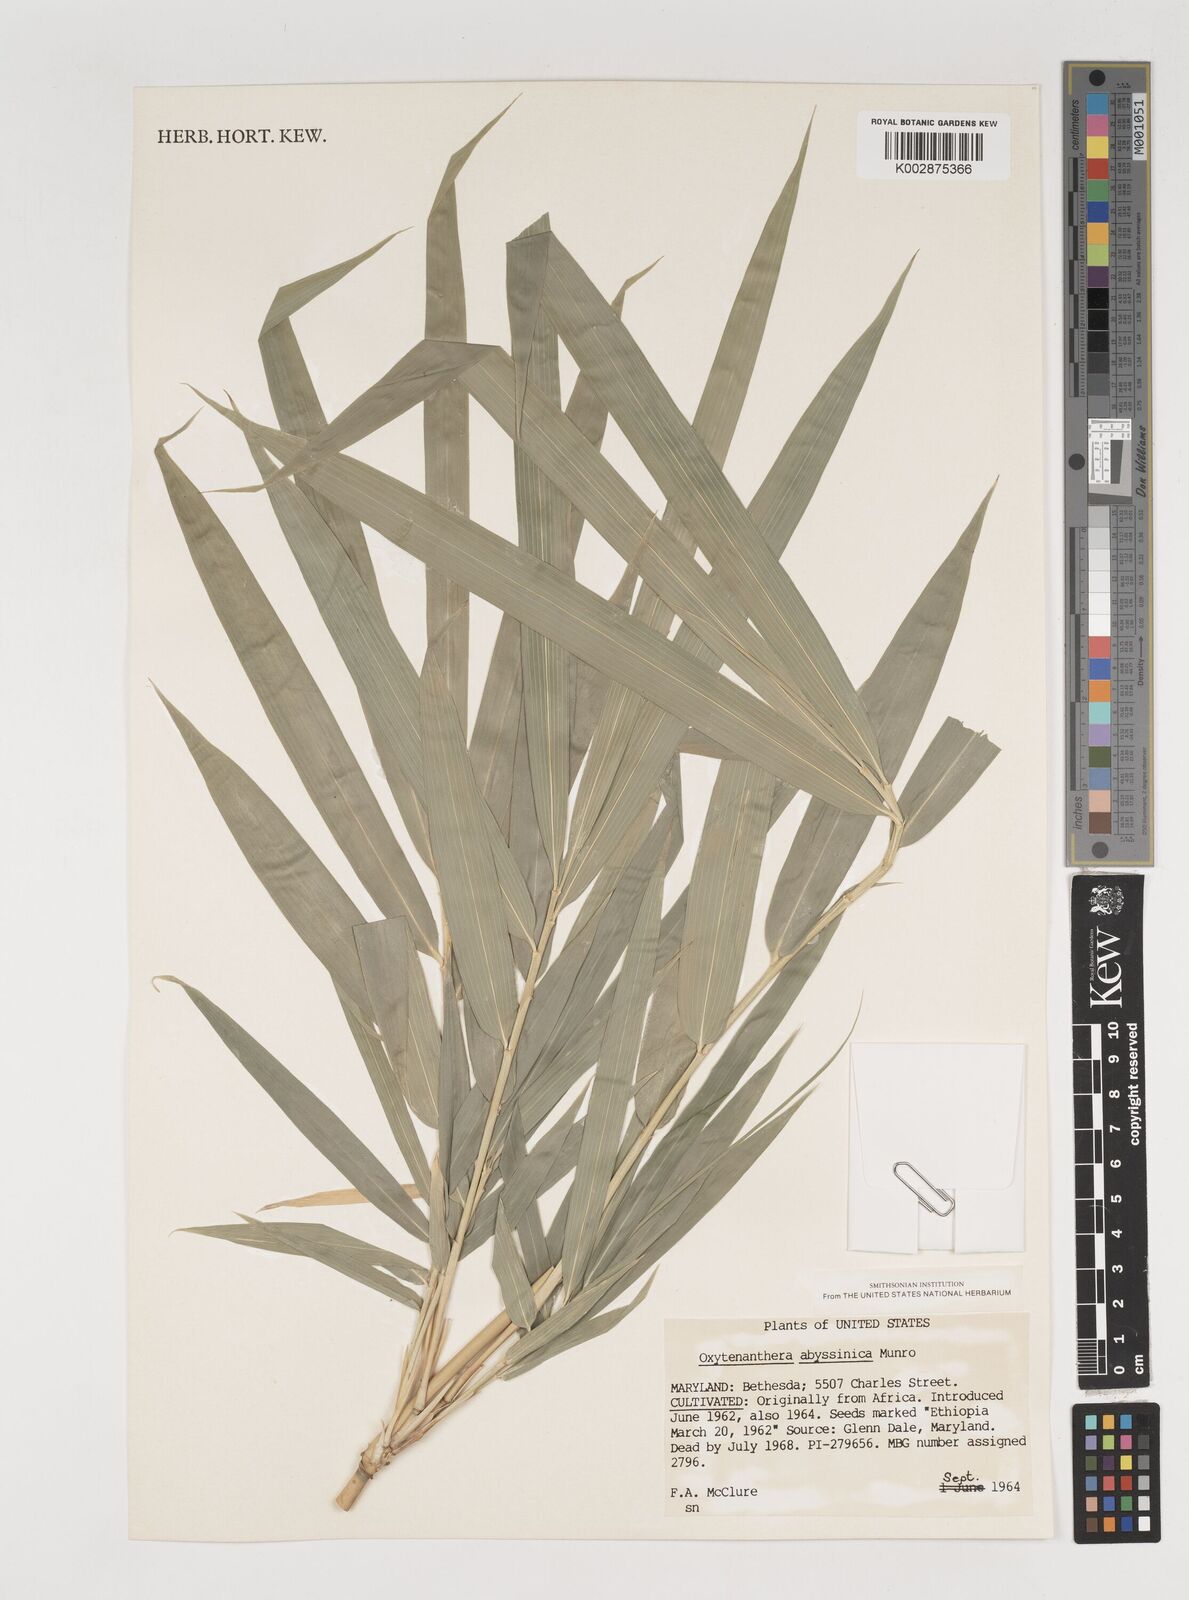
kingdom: Plantae
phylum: Tracheophyta
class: Liliopsida
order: Poales
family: Poaceae
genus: Oxytenanthera
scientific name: Oxytenanthera abyssinica
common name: Wine bamboo
